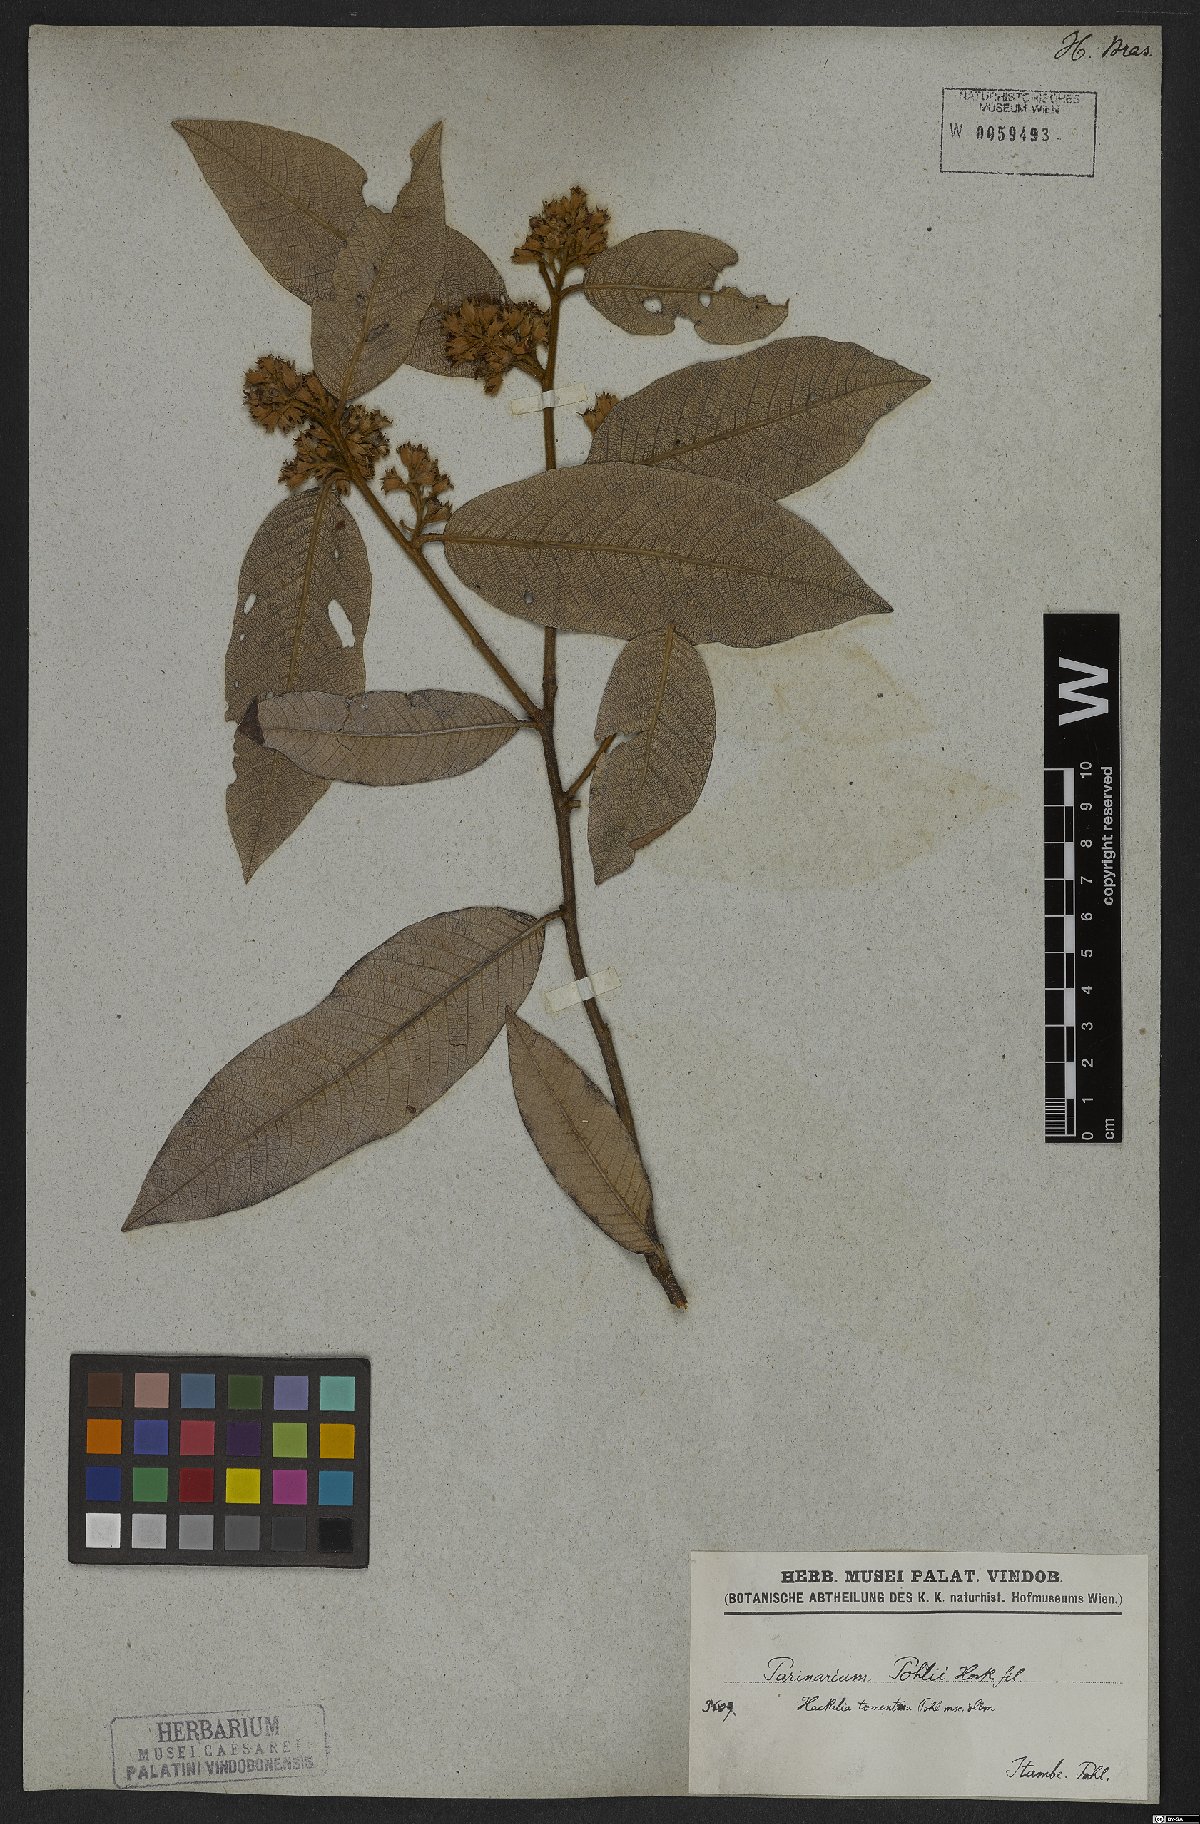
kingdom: Plantae
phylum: Tracheophyta
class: Magnoliopsida
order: Malpighiales
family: Chrysobalanaceae
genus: Parinari
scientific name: Parinari brasiliensis
